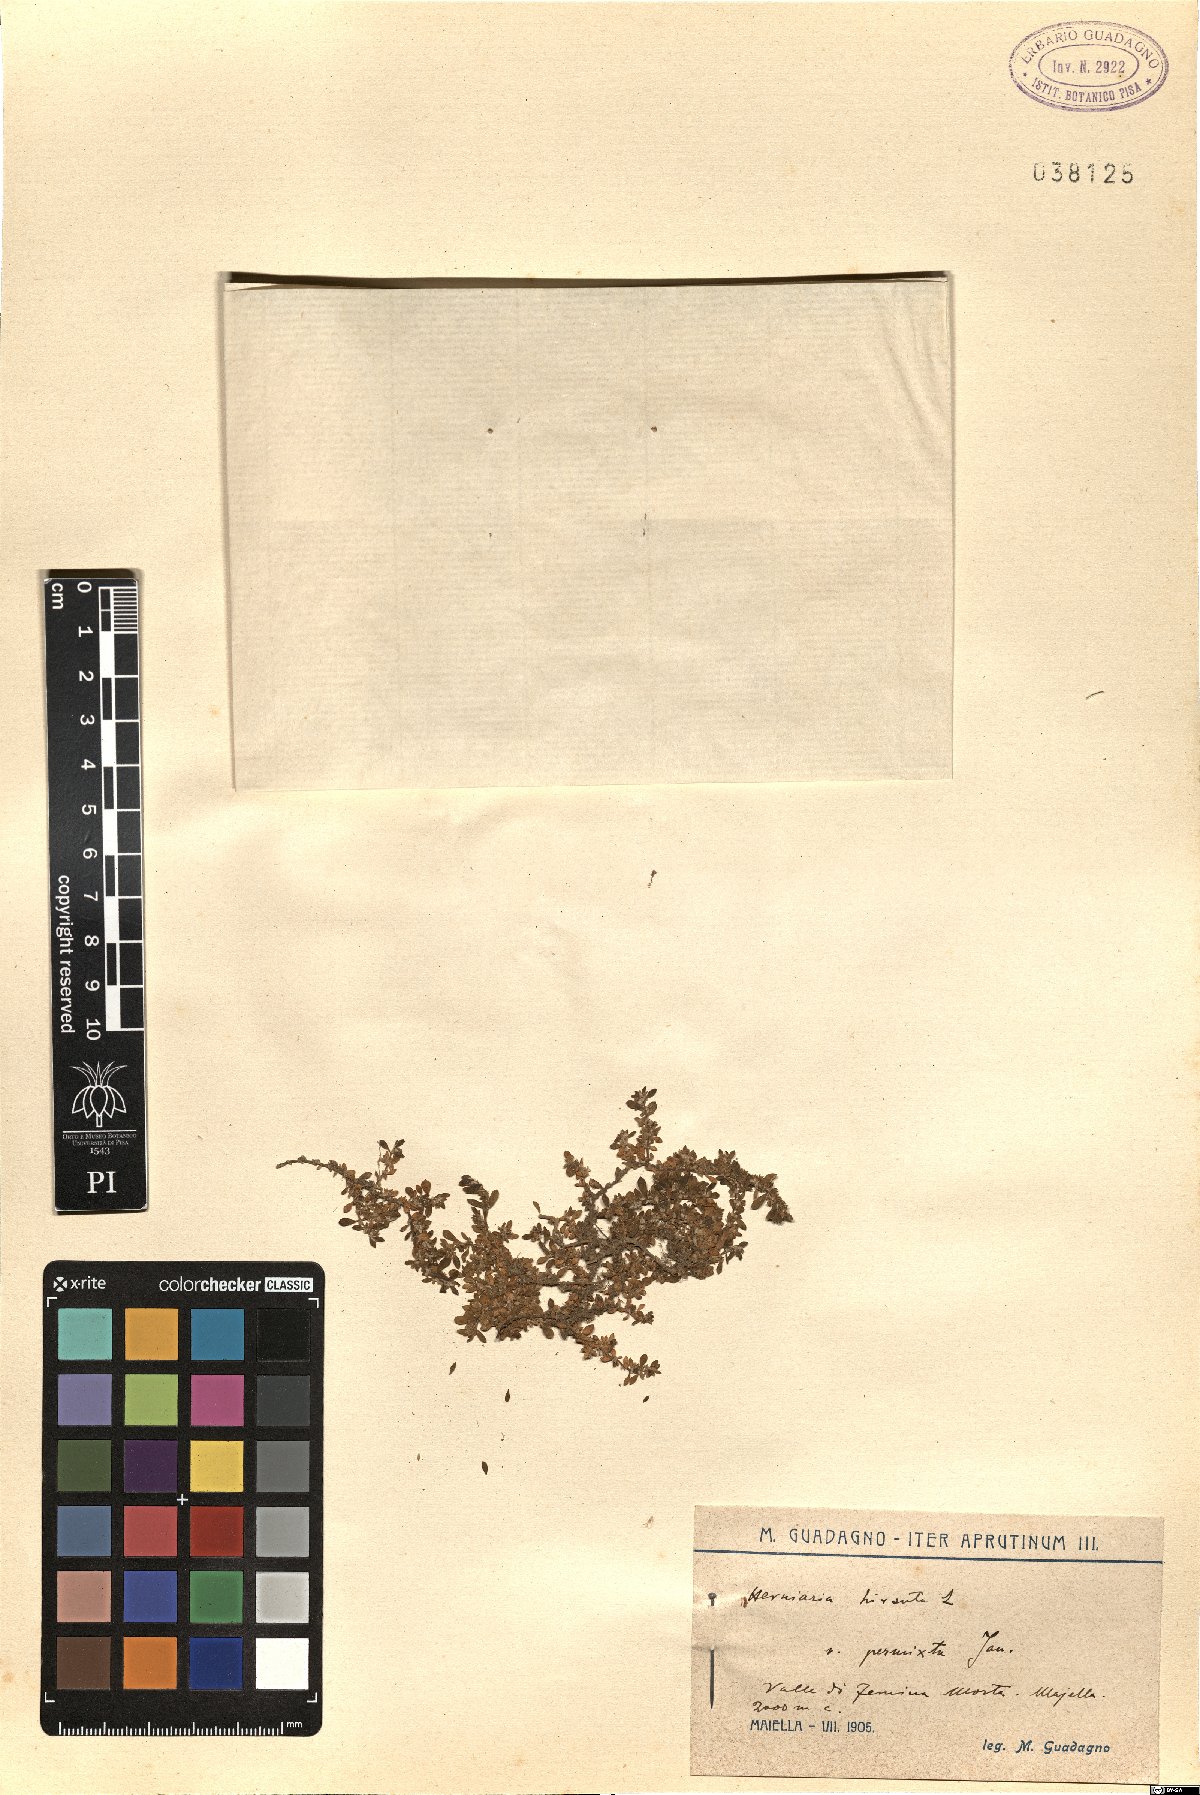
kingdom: Plantae
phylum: Tracheophyta
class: Magnoliopsida
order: Caryophyllales
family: Caryophyllaceae
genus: Herniaria
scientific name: Herniaria hirsuta
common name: Hairy rupturewort
